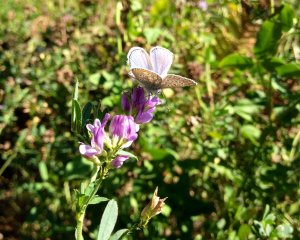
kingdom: Animalia
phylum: Arthropoda
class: Insecta
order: Lepidoptera
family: Lycaenidae
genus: Polyommatus
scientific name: Polyommatus icarus
